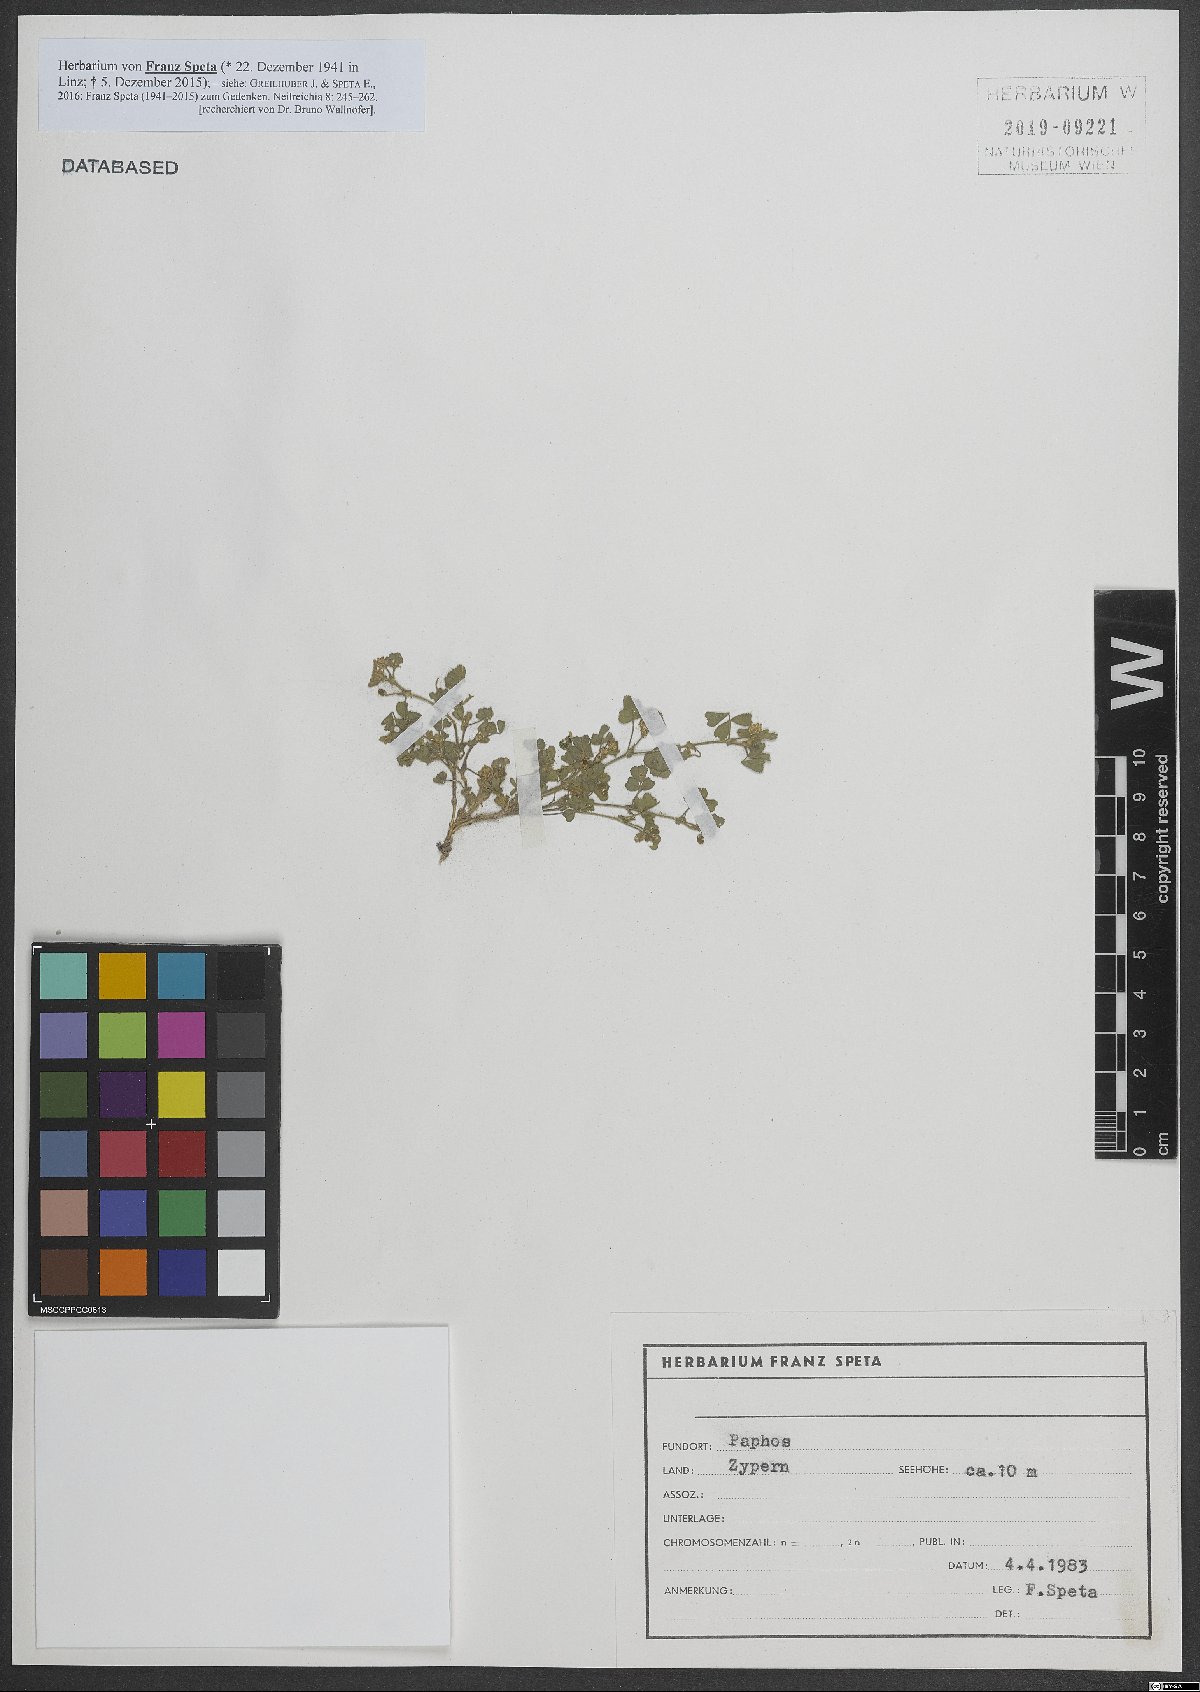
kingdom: Plantae
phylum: Tracheophyta
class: Magnoliopsida
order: Fabales
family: Fabaceae
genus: Medicago
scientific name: Medicago
